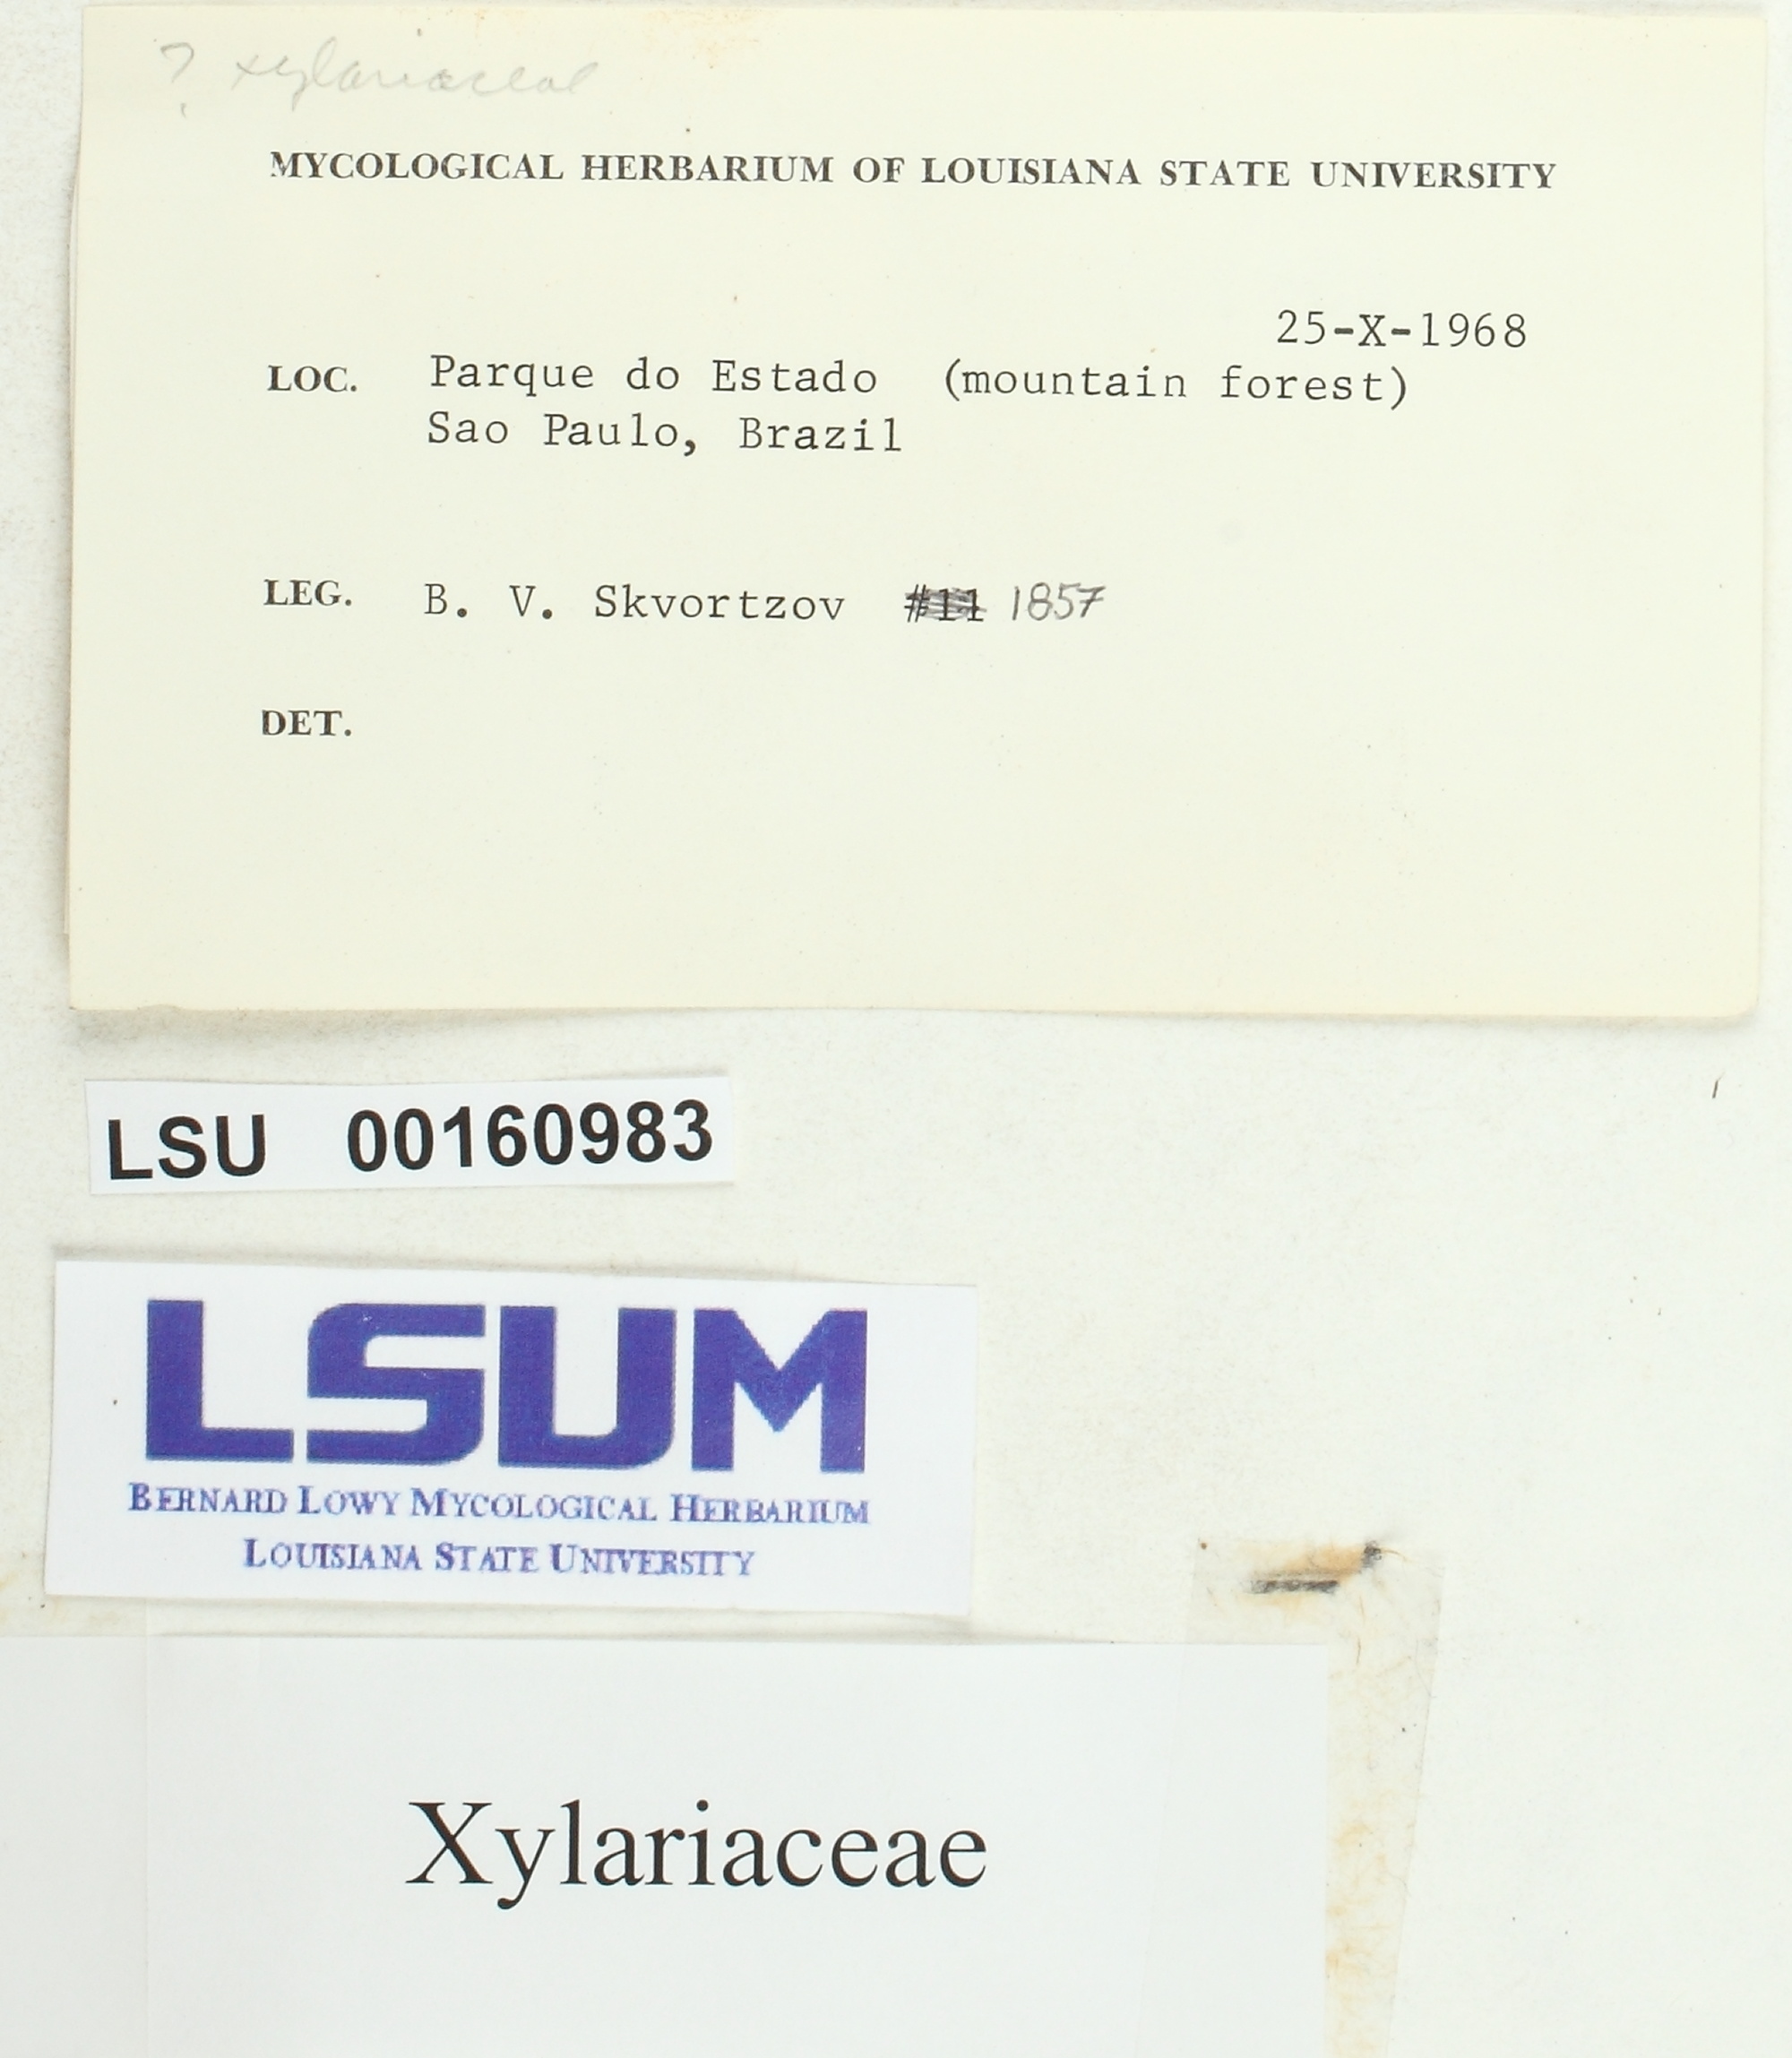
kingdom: Fungi
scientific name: Fungi
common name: Fungi
